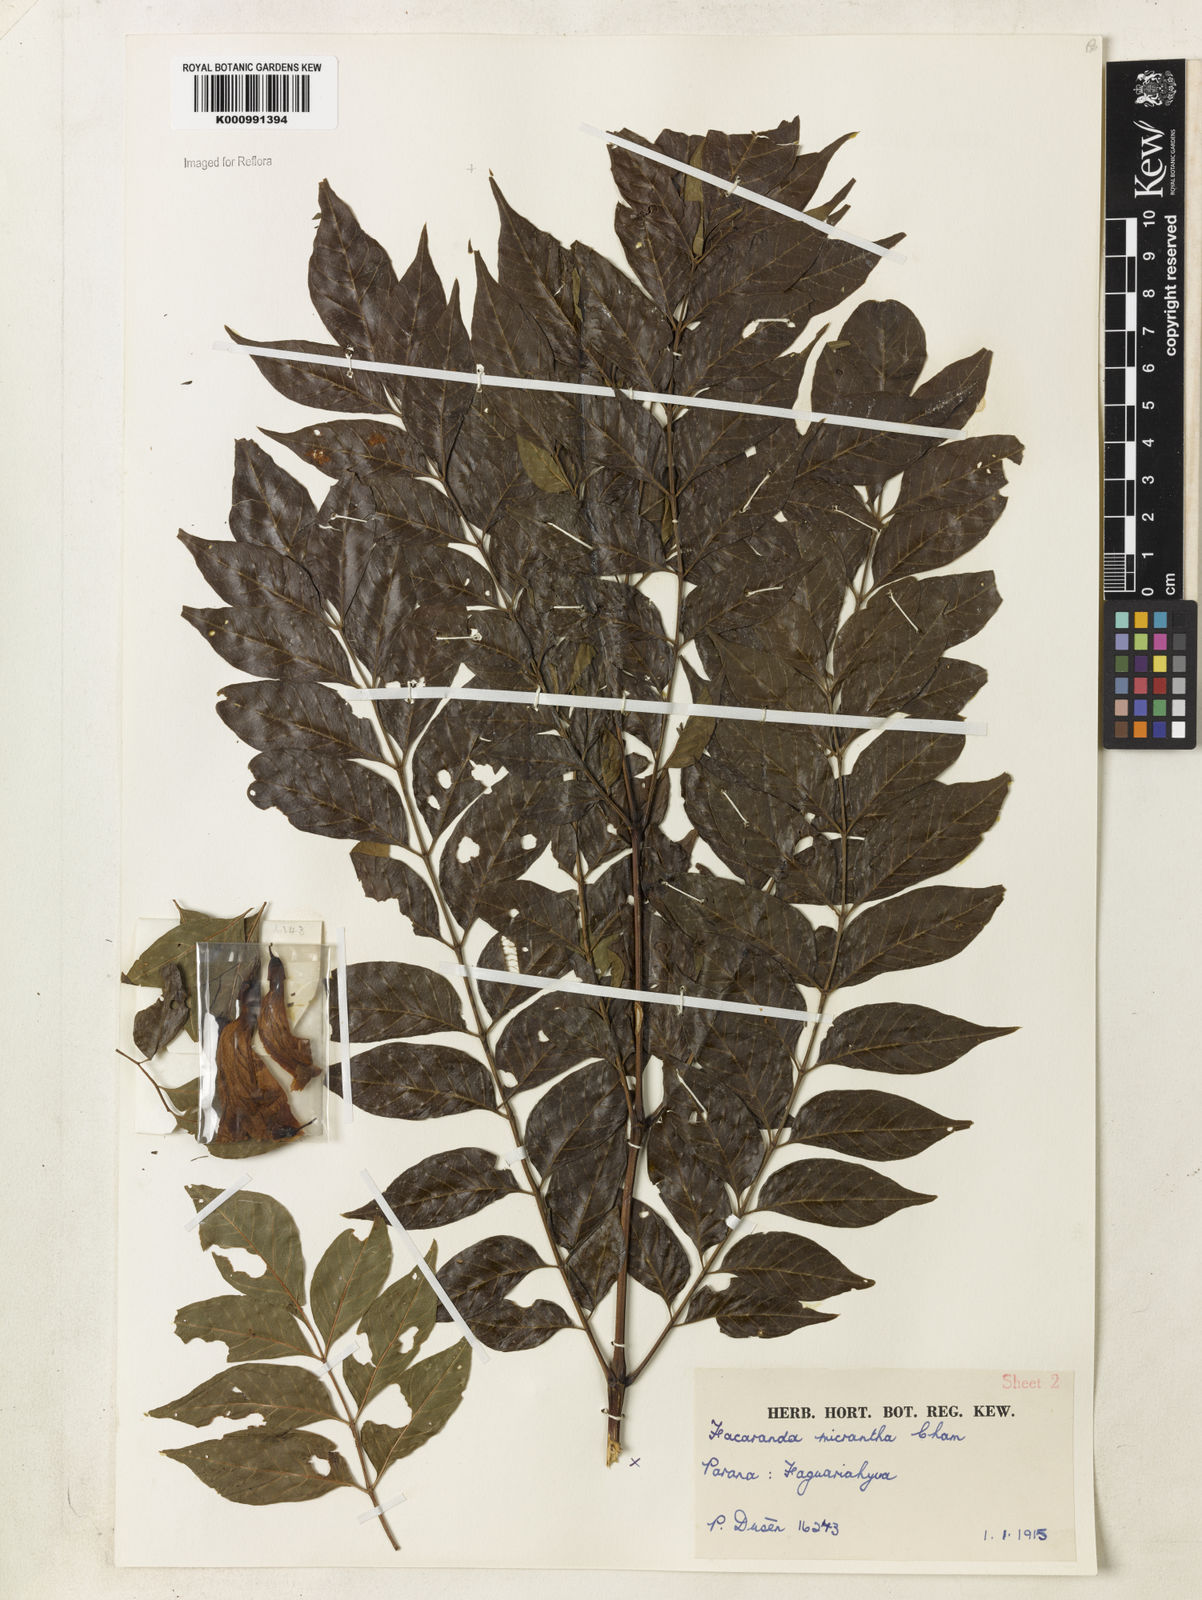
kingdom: Plantae
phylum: Tracheophyta
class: Magnoliopsida
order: Lamiales
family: Bignoniaceae
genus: Jacaranda
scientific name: Jacaranda micrantha
